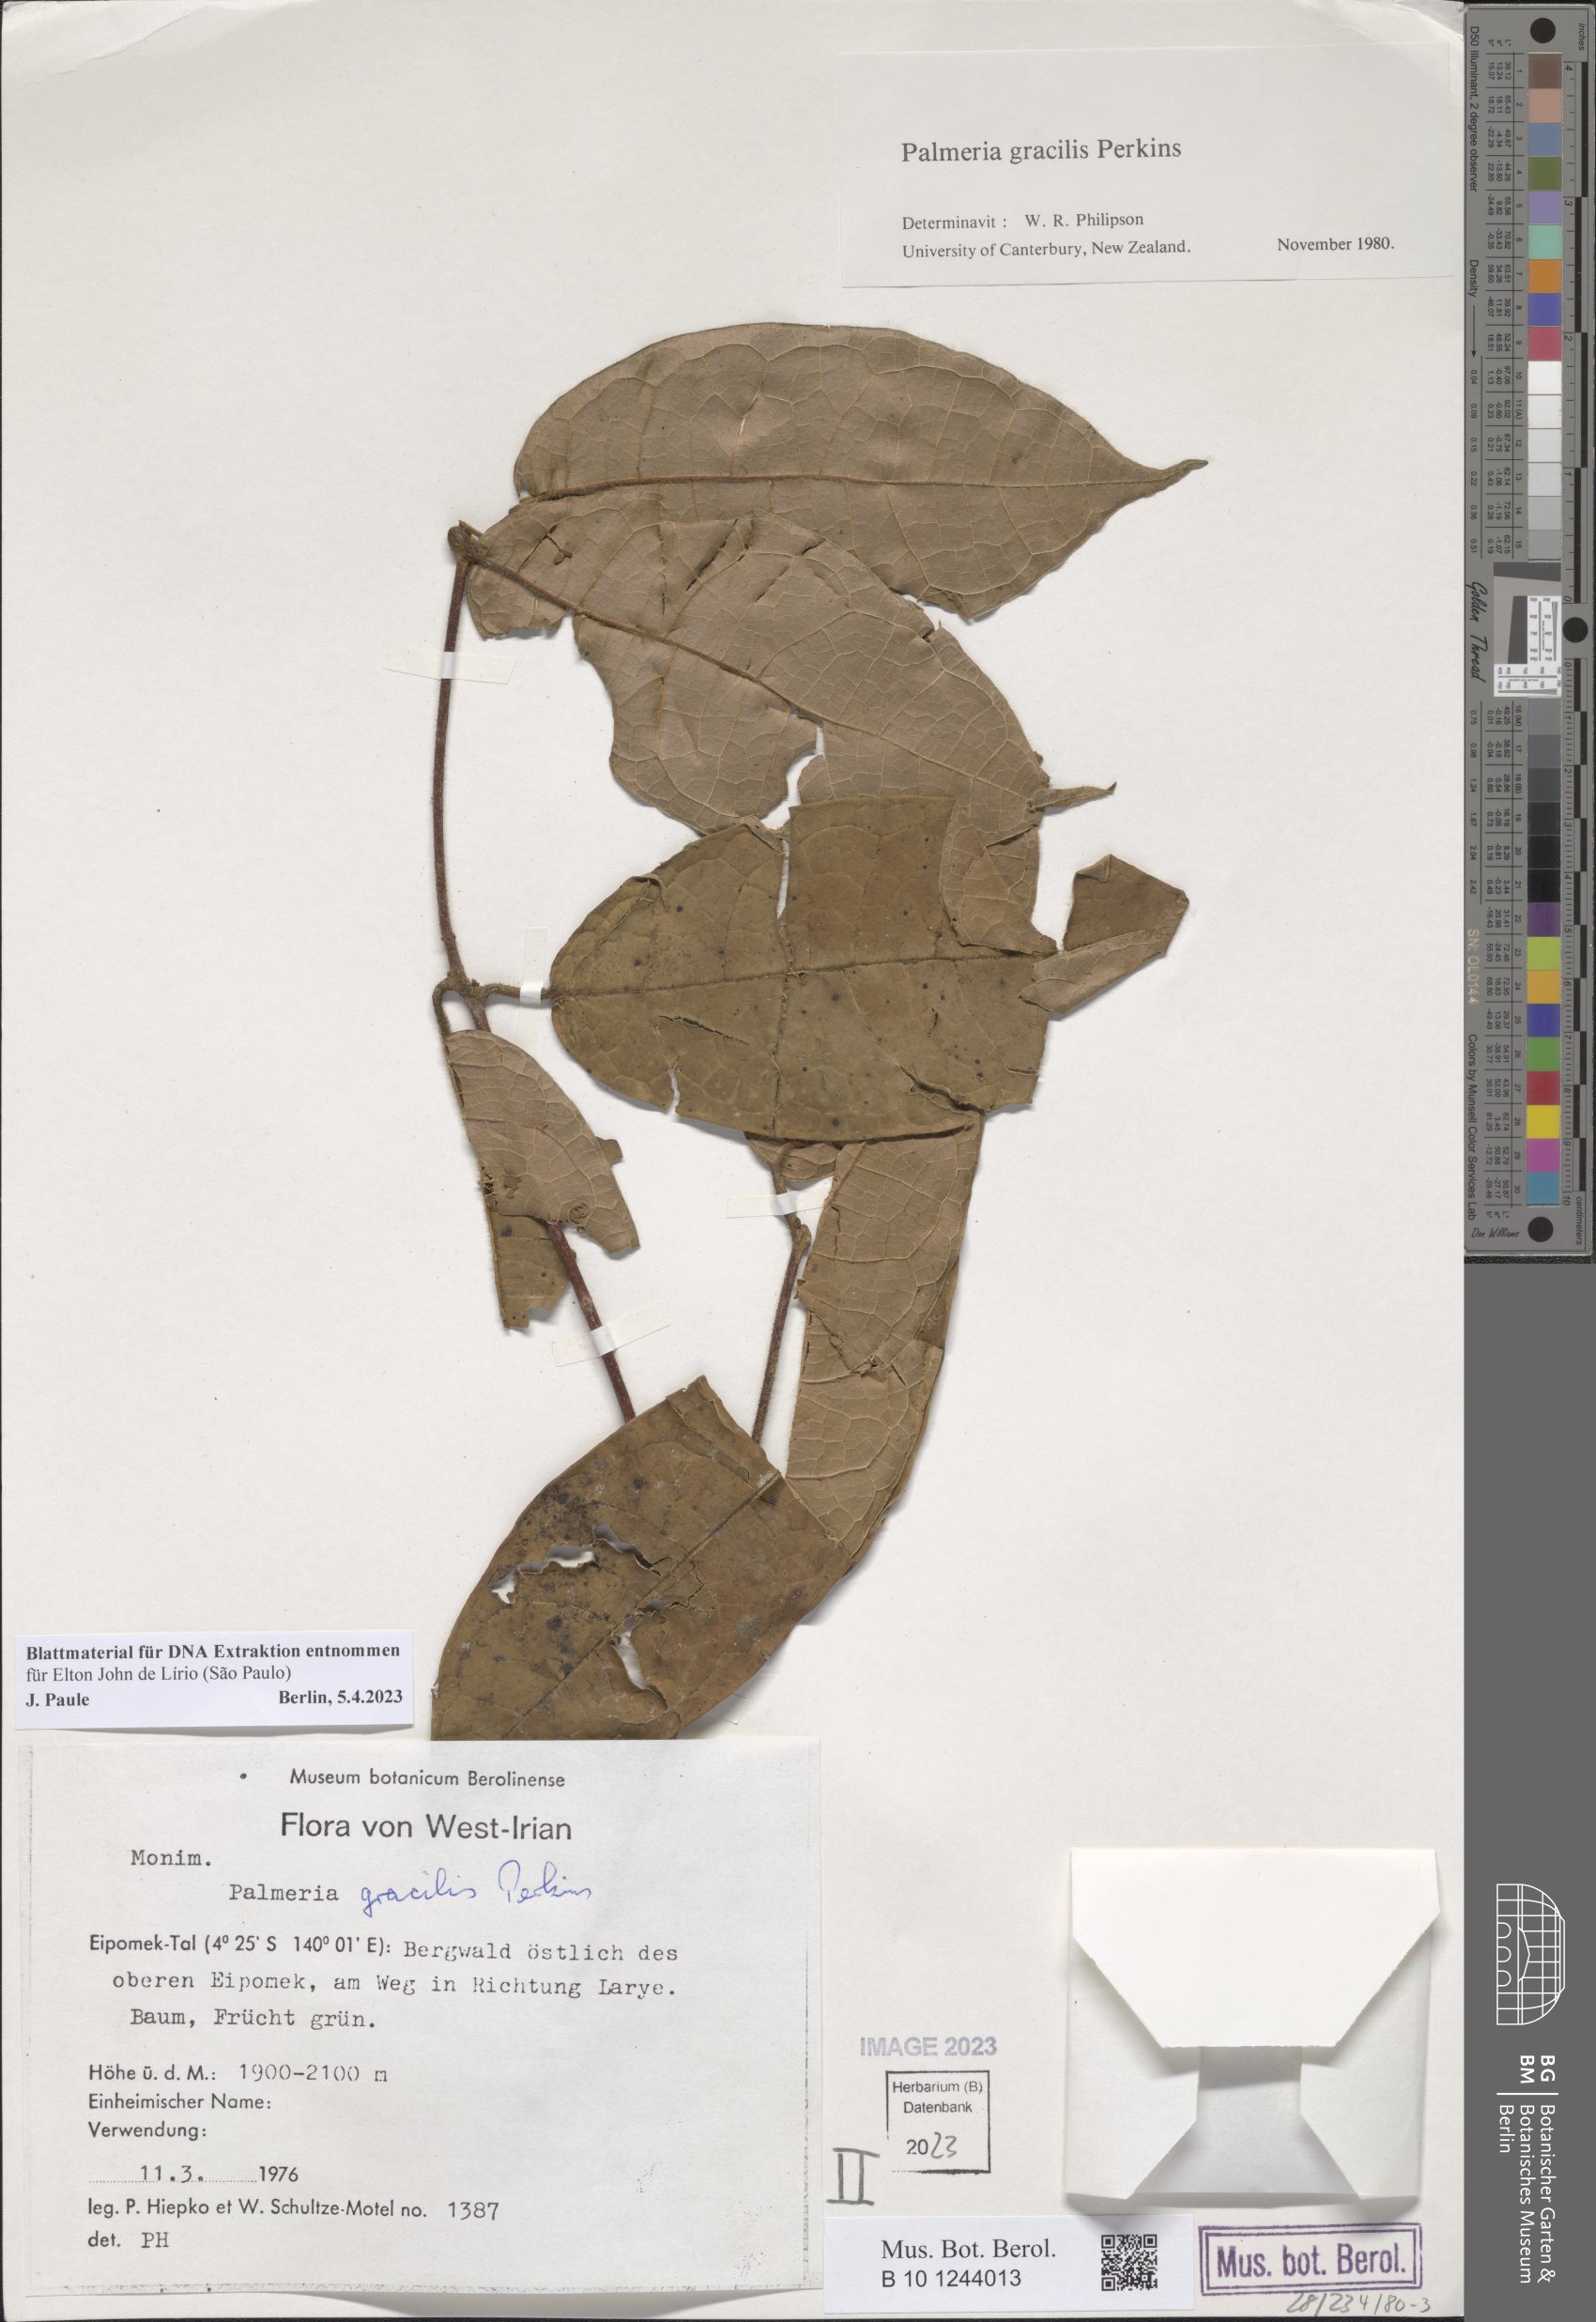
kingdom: Plantae
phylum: Tracheophyta
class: Magnoliopsida
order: Laurales
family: Monimiaceae
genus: Palmeria
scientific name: Palmeria gracilis
